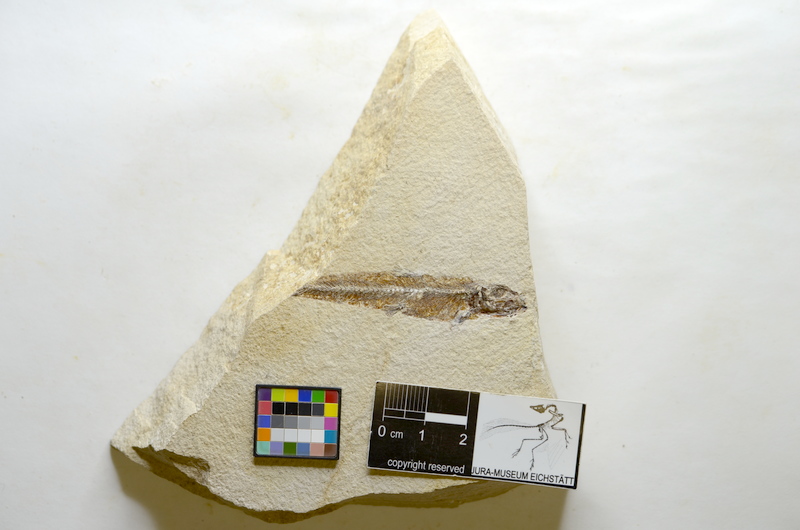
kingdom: Animalia
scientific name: Animalia
